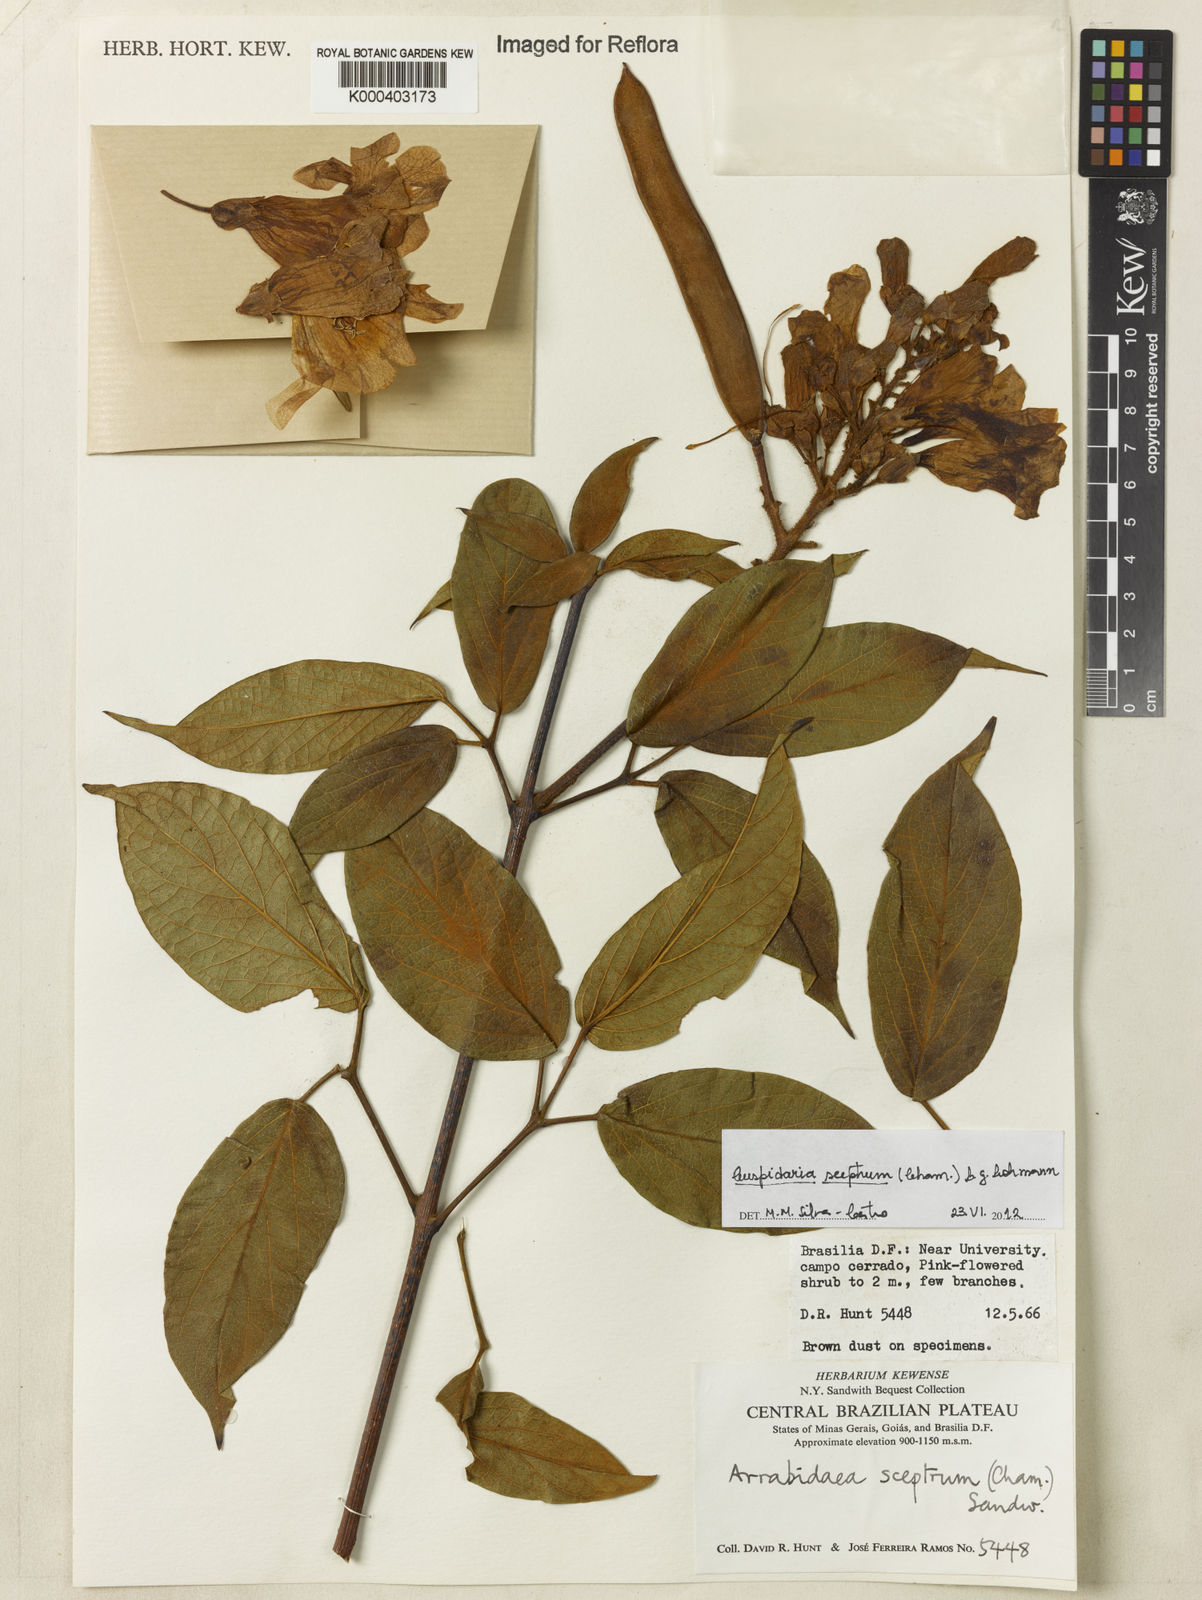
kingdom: Plantae
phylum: Tracheophyta
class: Magnoliopsida
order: Lamiales
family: Bignoniaceae
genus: Cuspidaria
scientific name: Cuspidaria
